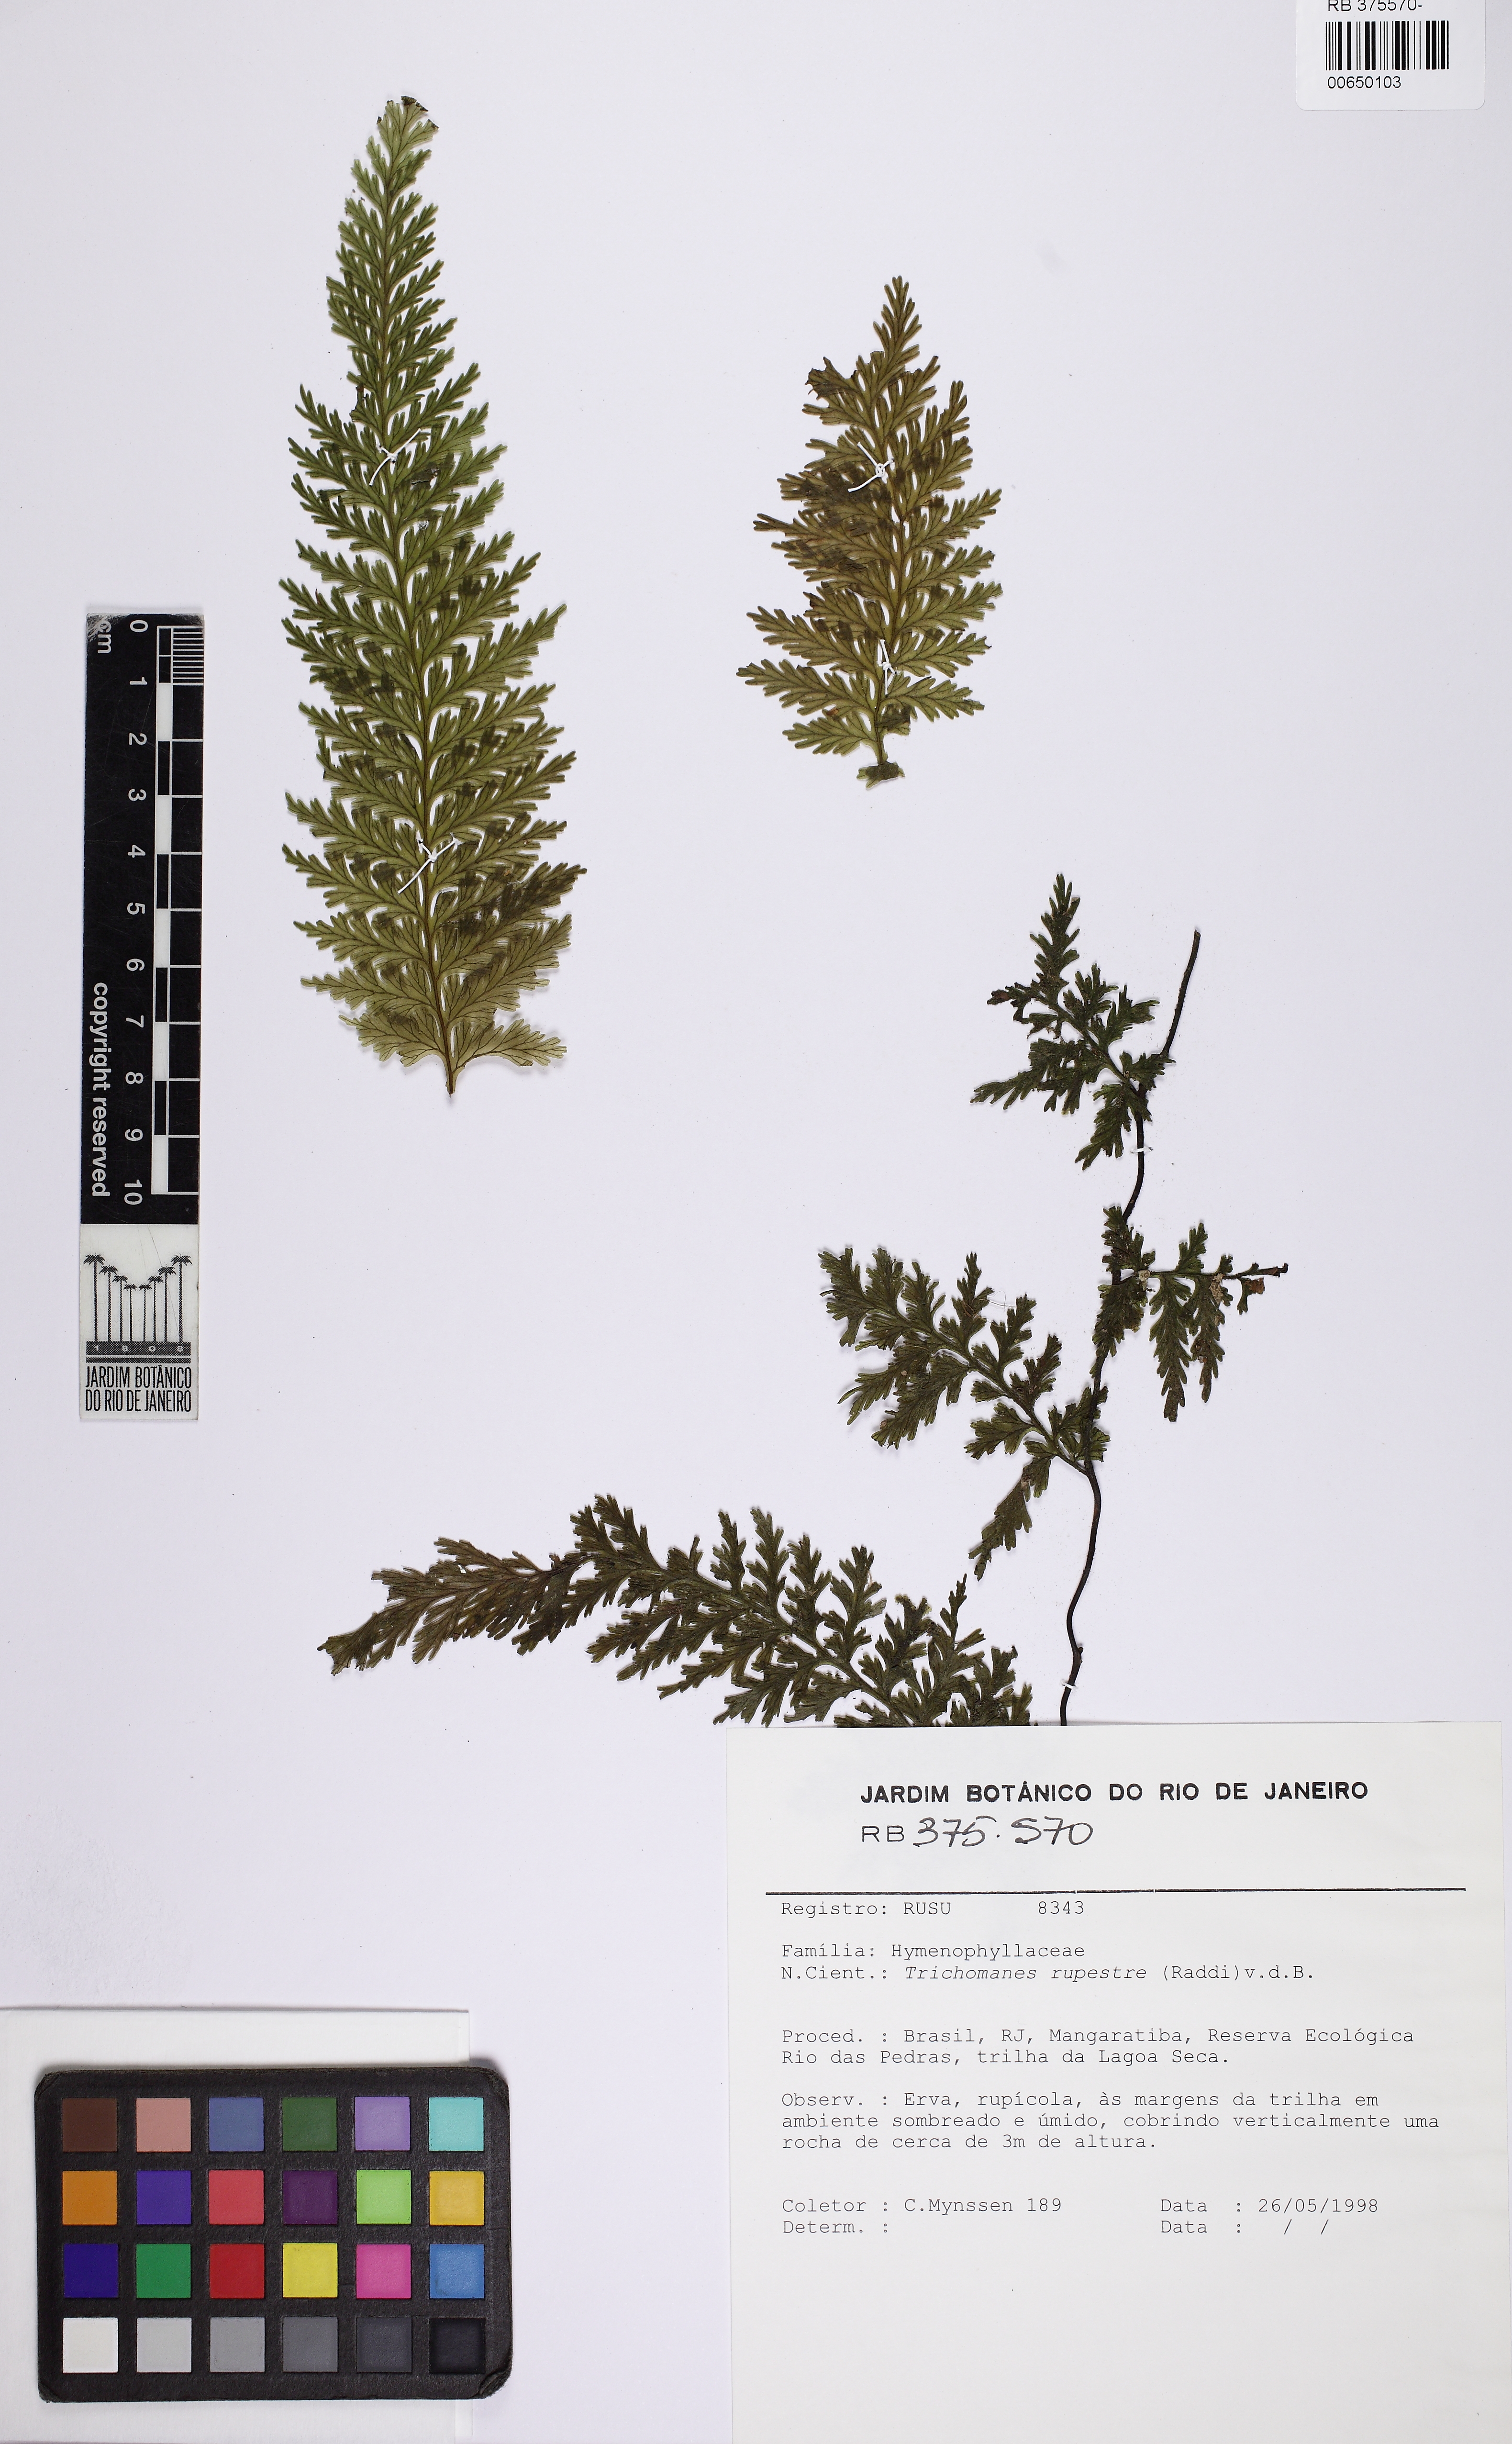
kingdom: Plantae
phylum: Tracheophyta
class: Polypodiopsida
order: Hymenophyllales
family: Hymenophyllaceae
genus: Vandenboschia
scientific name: Vandenboschia rupestris
